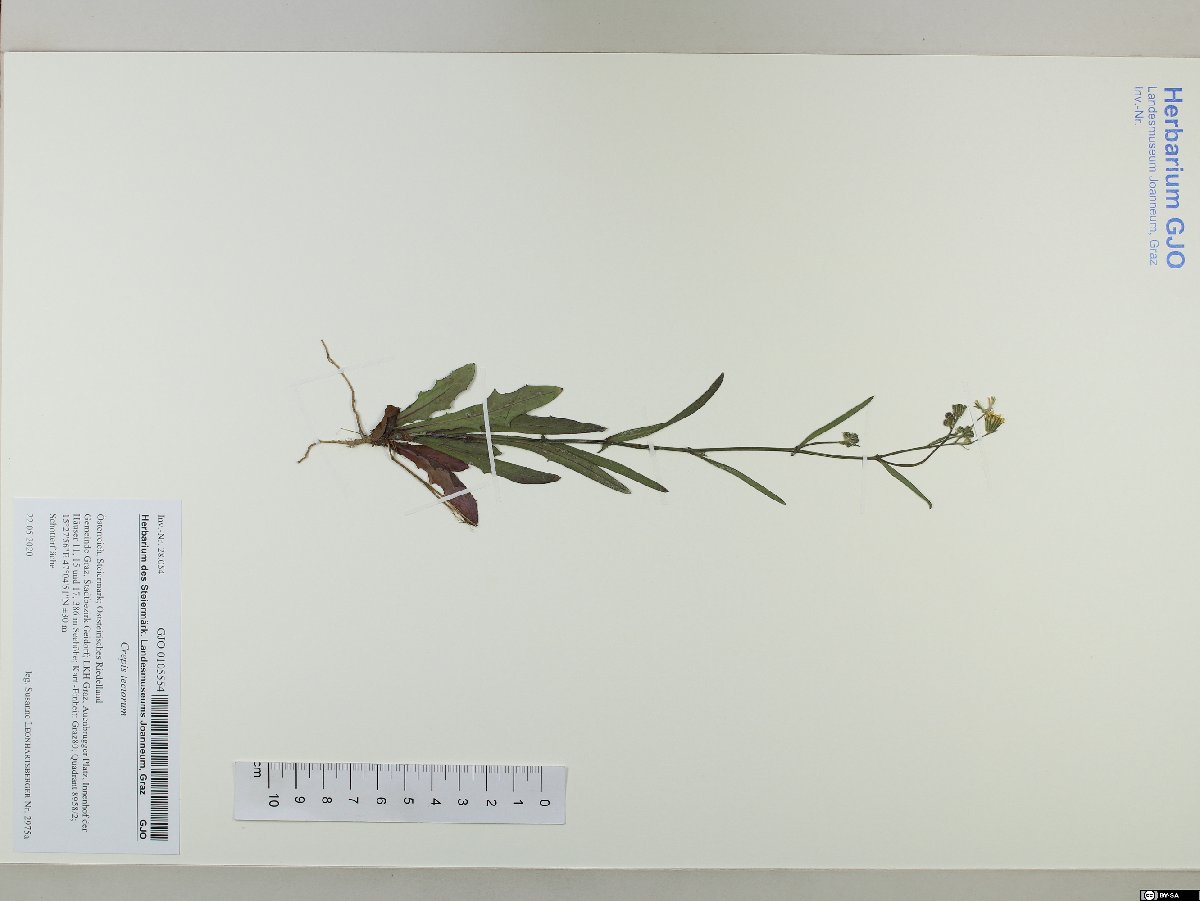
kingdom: Plantae
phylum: Tracheophyta
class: Magnoliopsida
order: Asterales
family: Asteraceae
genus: Crepis
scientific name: Crepis tectorum
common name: Narrow-leaved hawk's-beard
